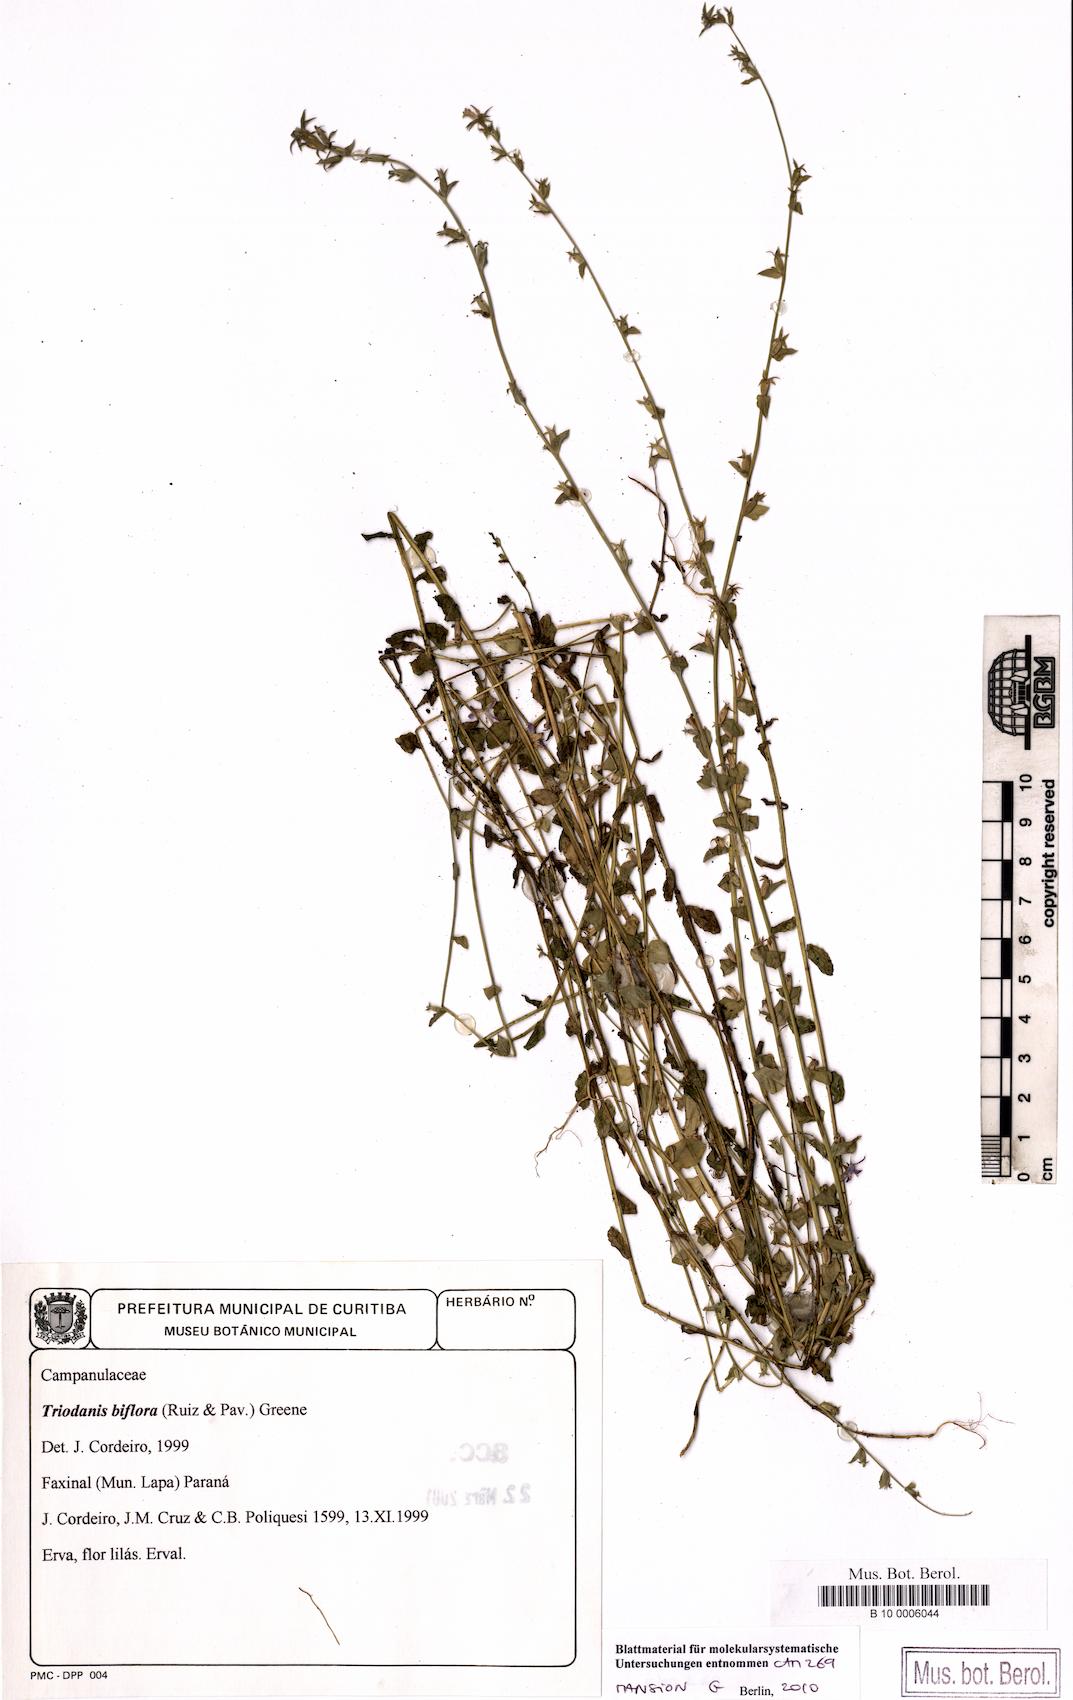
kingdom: Plantae
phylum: Tracheophyta
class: Magnoliopsida
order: Asterales
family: Campanulaceae
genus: Triodanis
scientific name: Triodanis perfoliata
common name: Clasping venus' looking-glass
